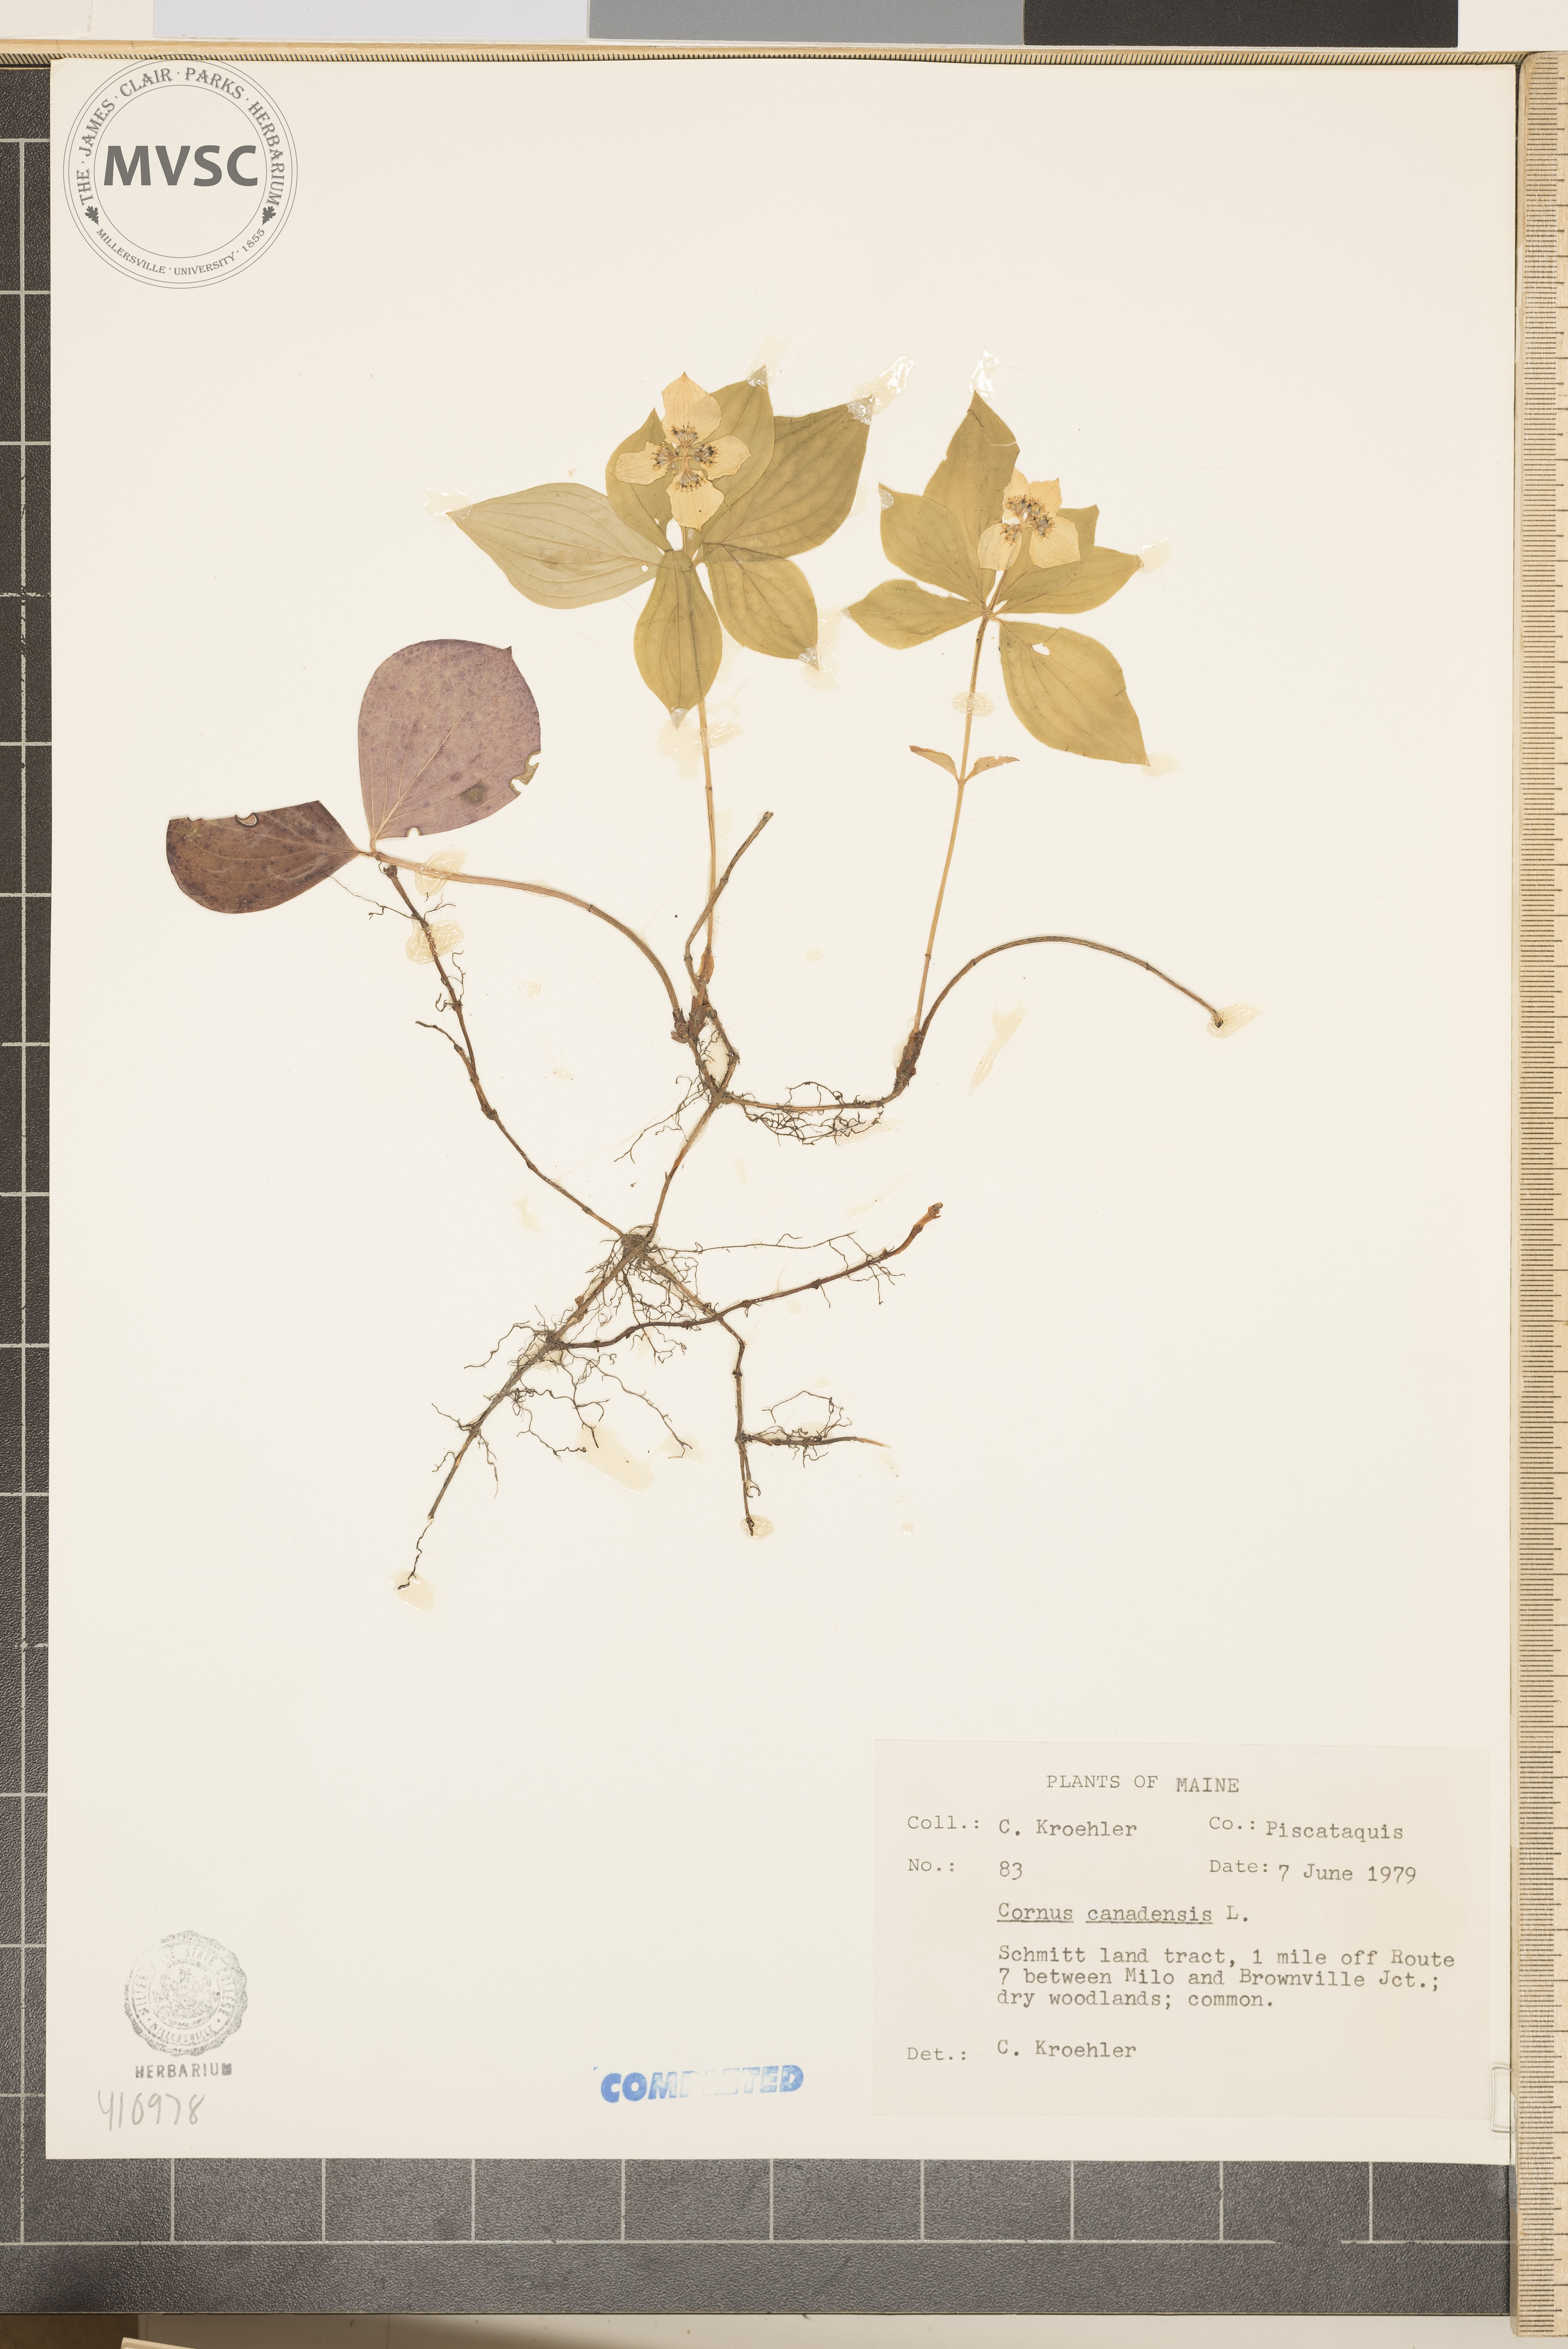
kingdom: Plantae
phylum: Tracheophyta
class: Magnoliopsida
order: Cornales
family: Cornaceae
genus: Cornus
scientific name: Cornus canadensis
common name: Bunchberry
